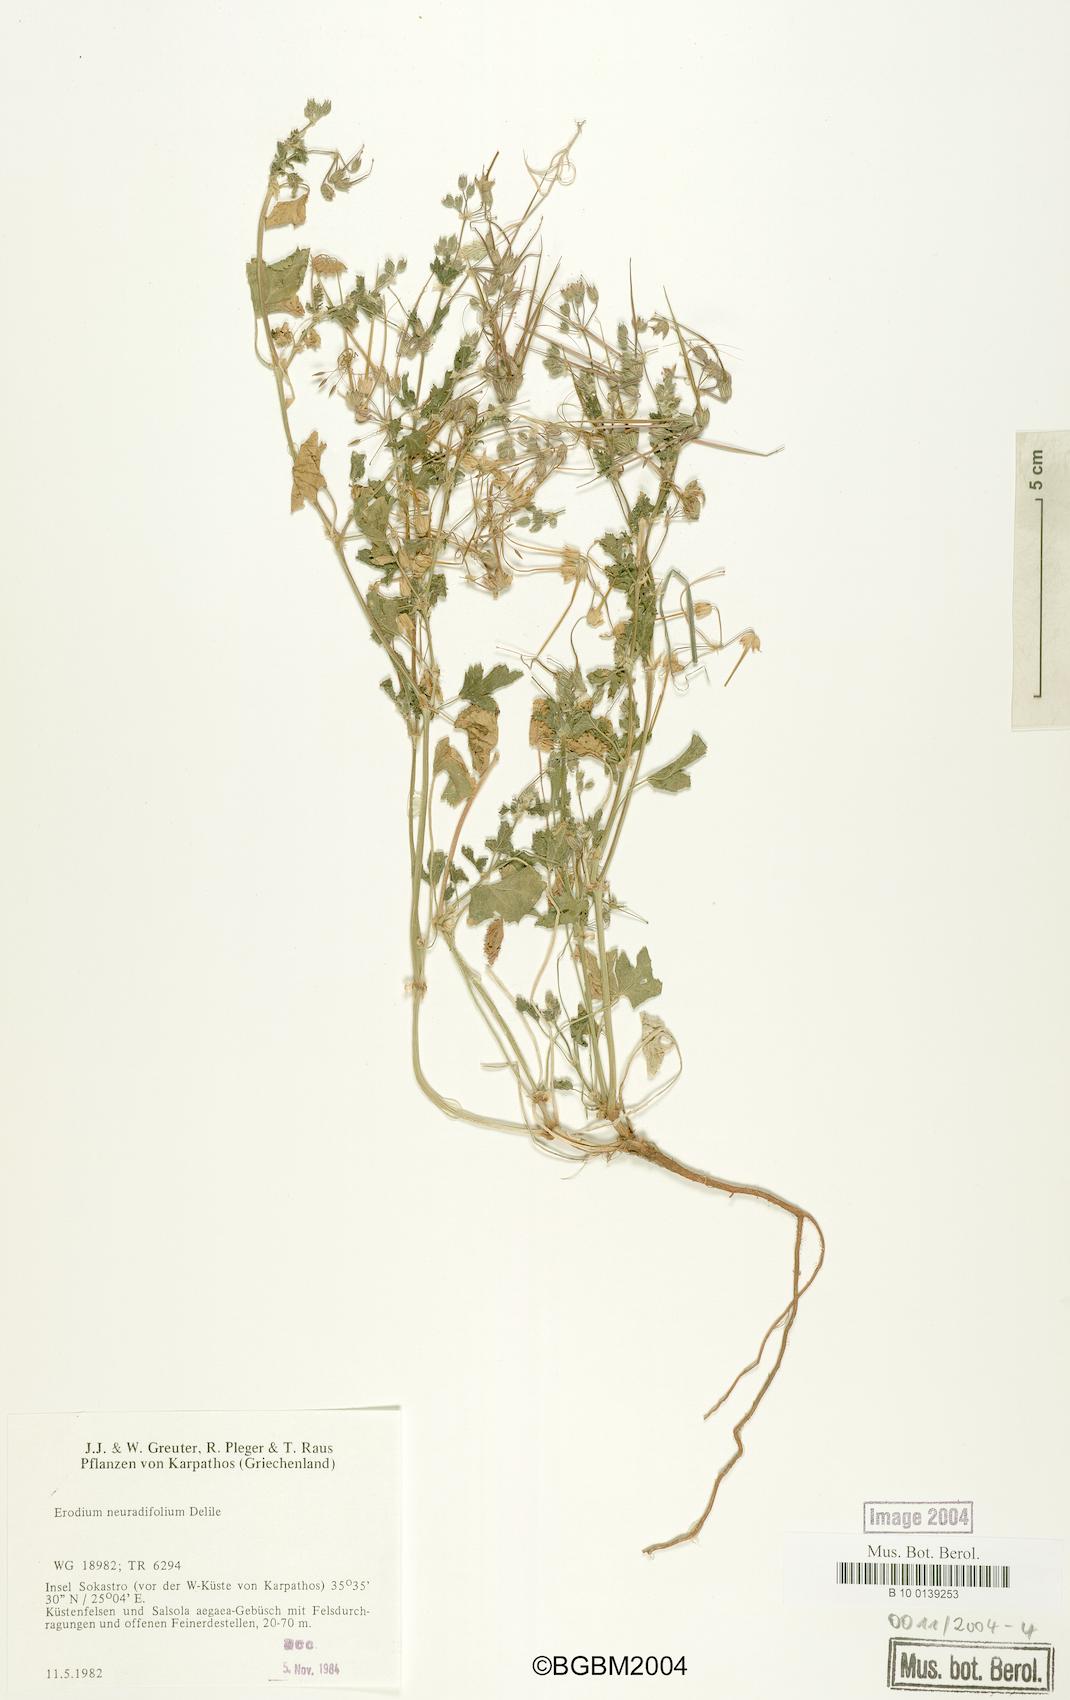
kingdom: Plantae
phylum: Tracheophyta
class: Magnoliopsida
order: Geraniales
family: Geraniaceae
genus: Erodium
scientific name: Erodium malacoides
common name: Soft stork's-bill
